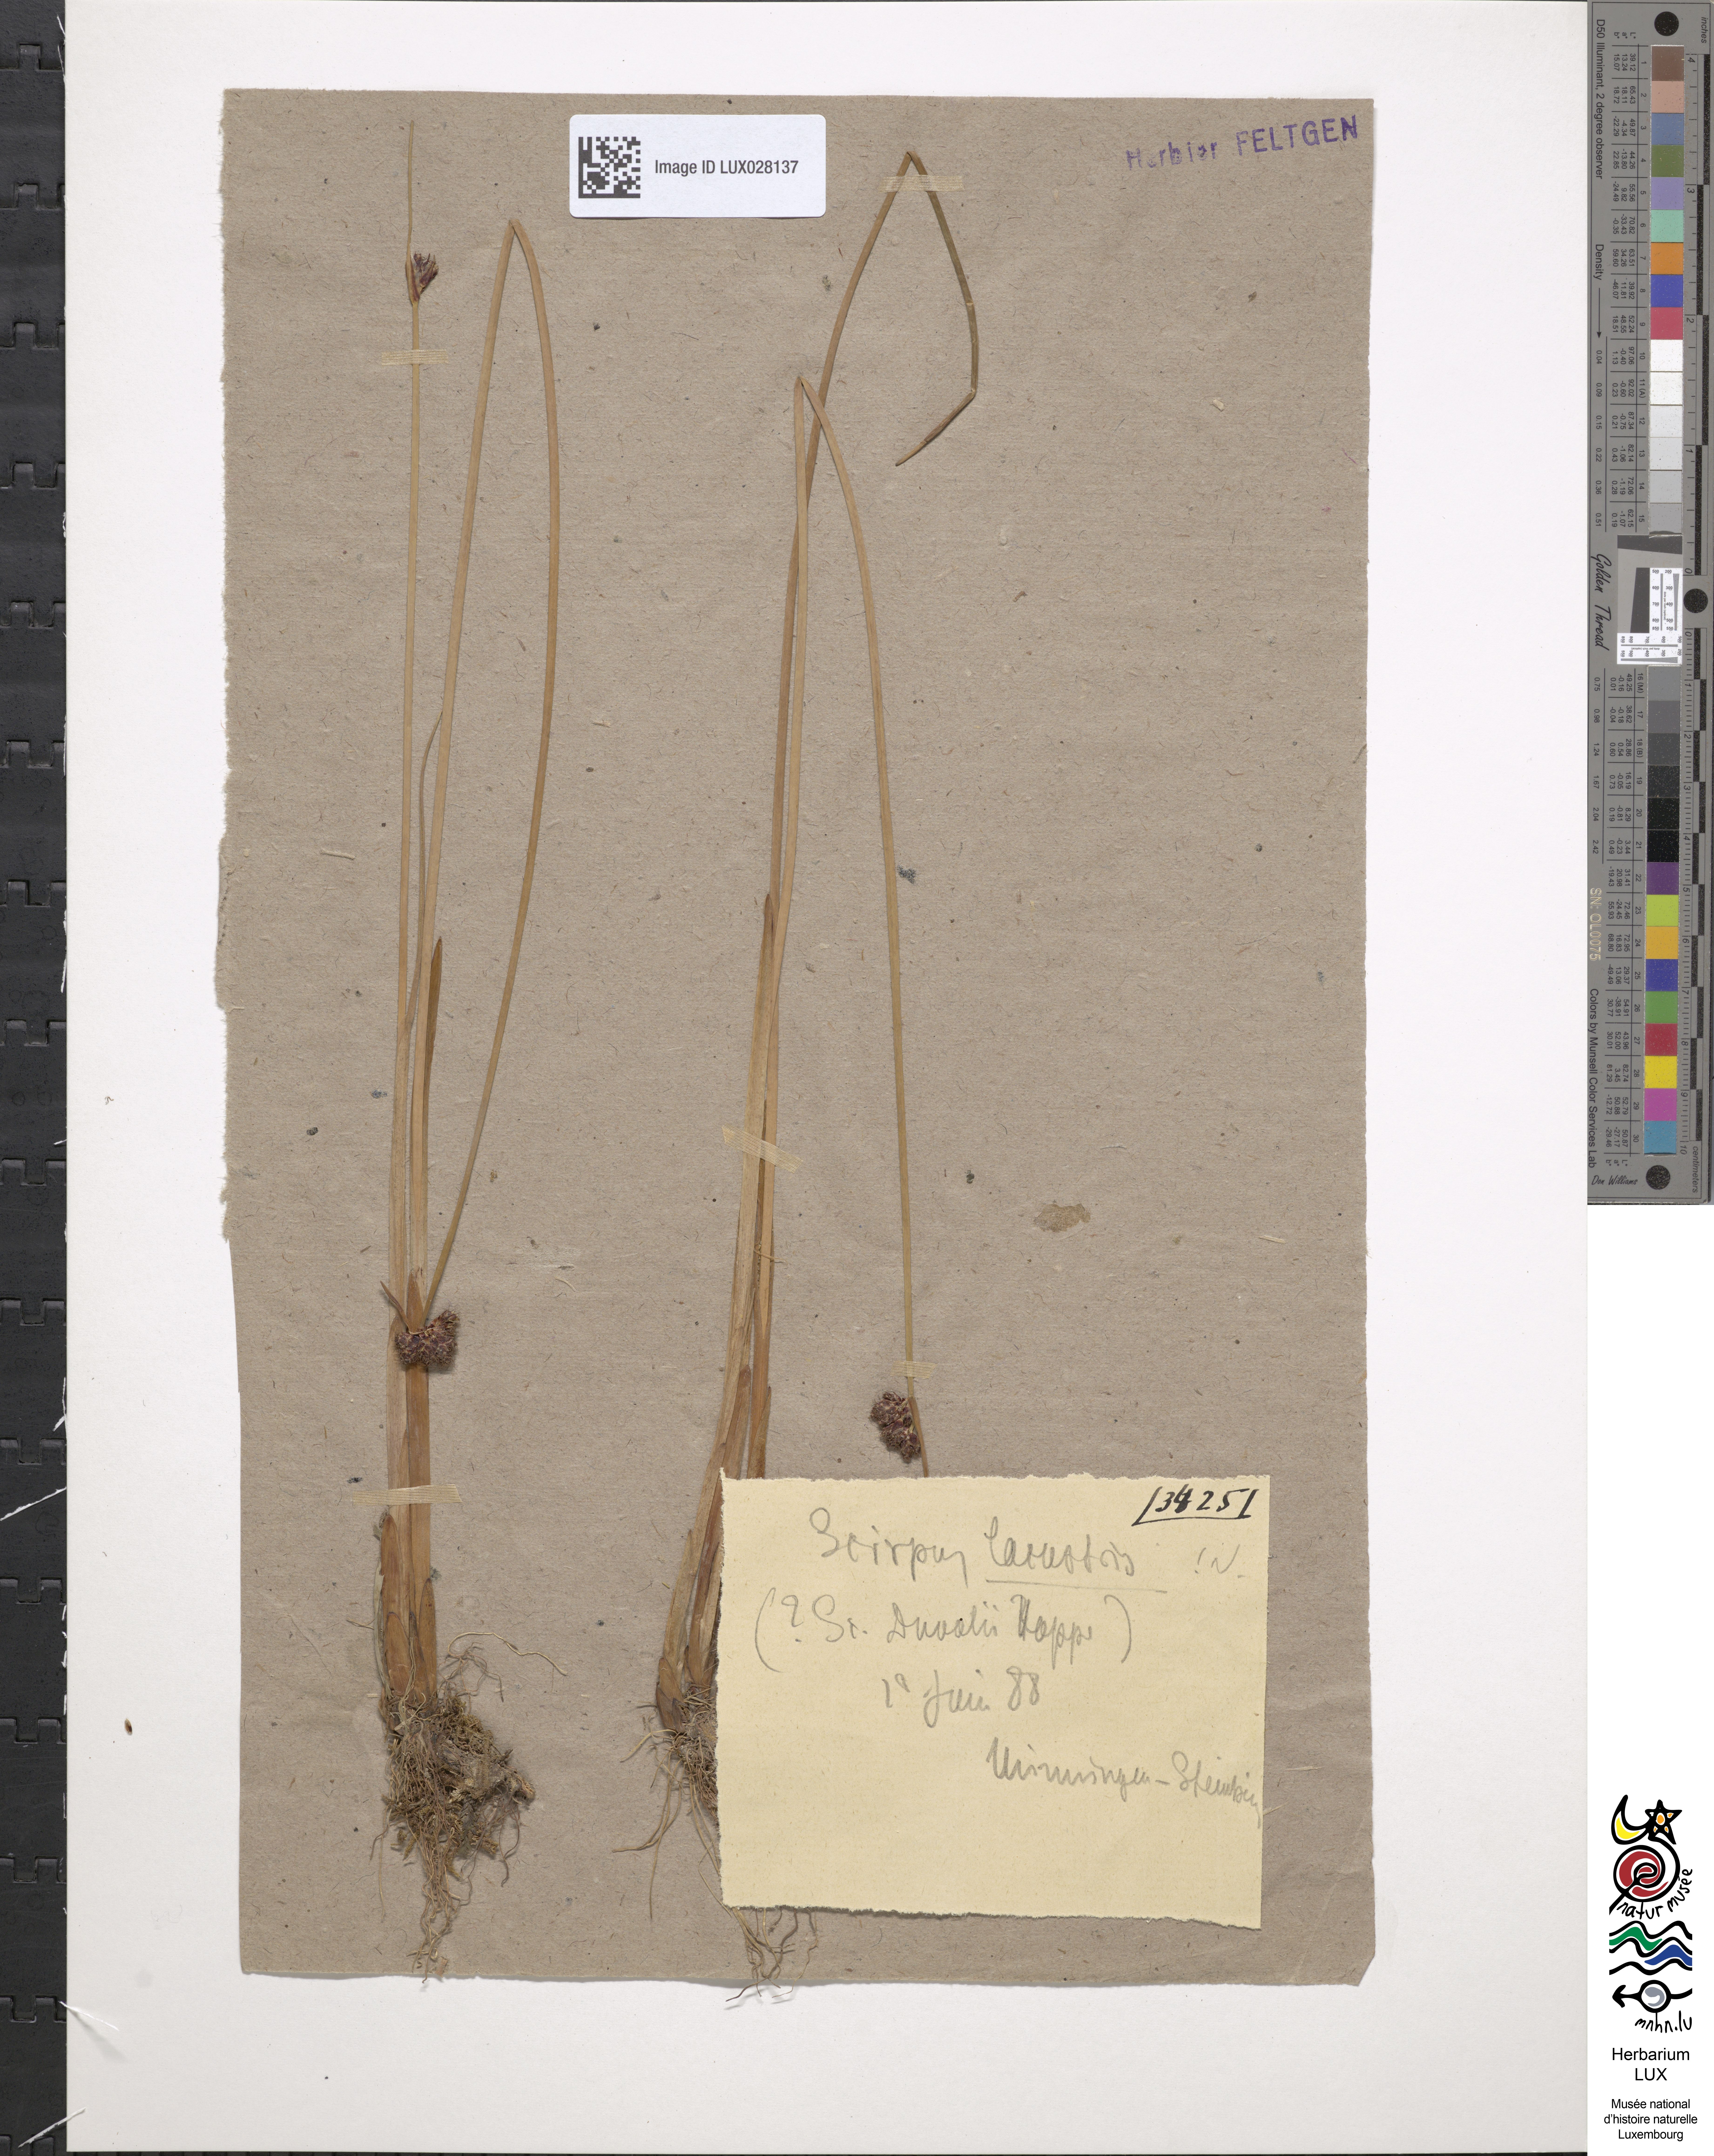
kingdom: Plantae
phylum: Tracheophyta
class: Liliopsida
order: Poales
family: Cyperaceae
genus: Schoenoplectus
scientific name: Schoenoplectus lacustris
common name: Common club-rush
